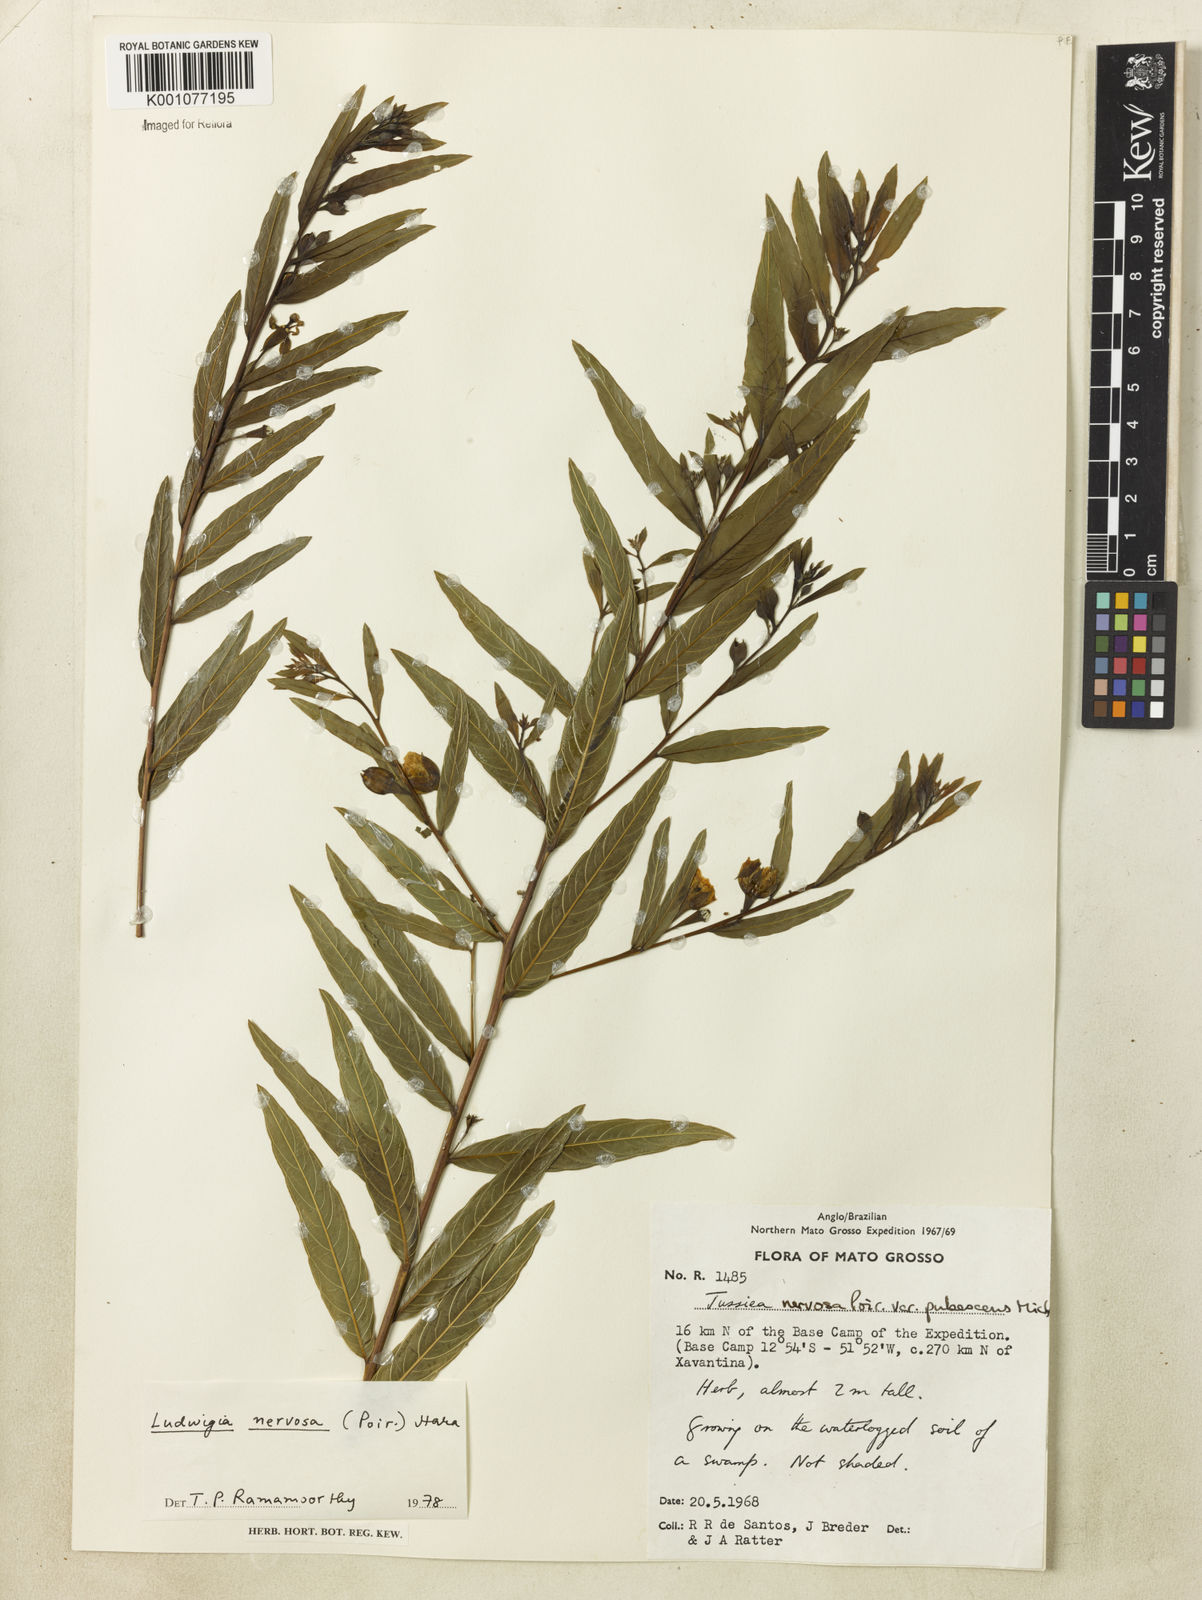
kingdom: Plantae
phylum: Tracheophyta
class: Magnoliopsida
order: Myrtales
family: Onagraceae
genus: Ludwigia
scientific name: Ludwigia nervosa
